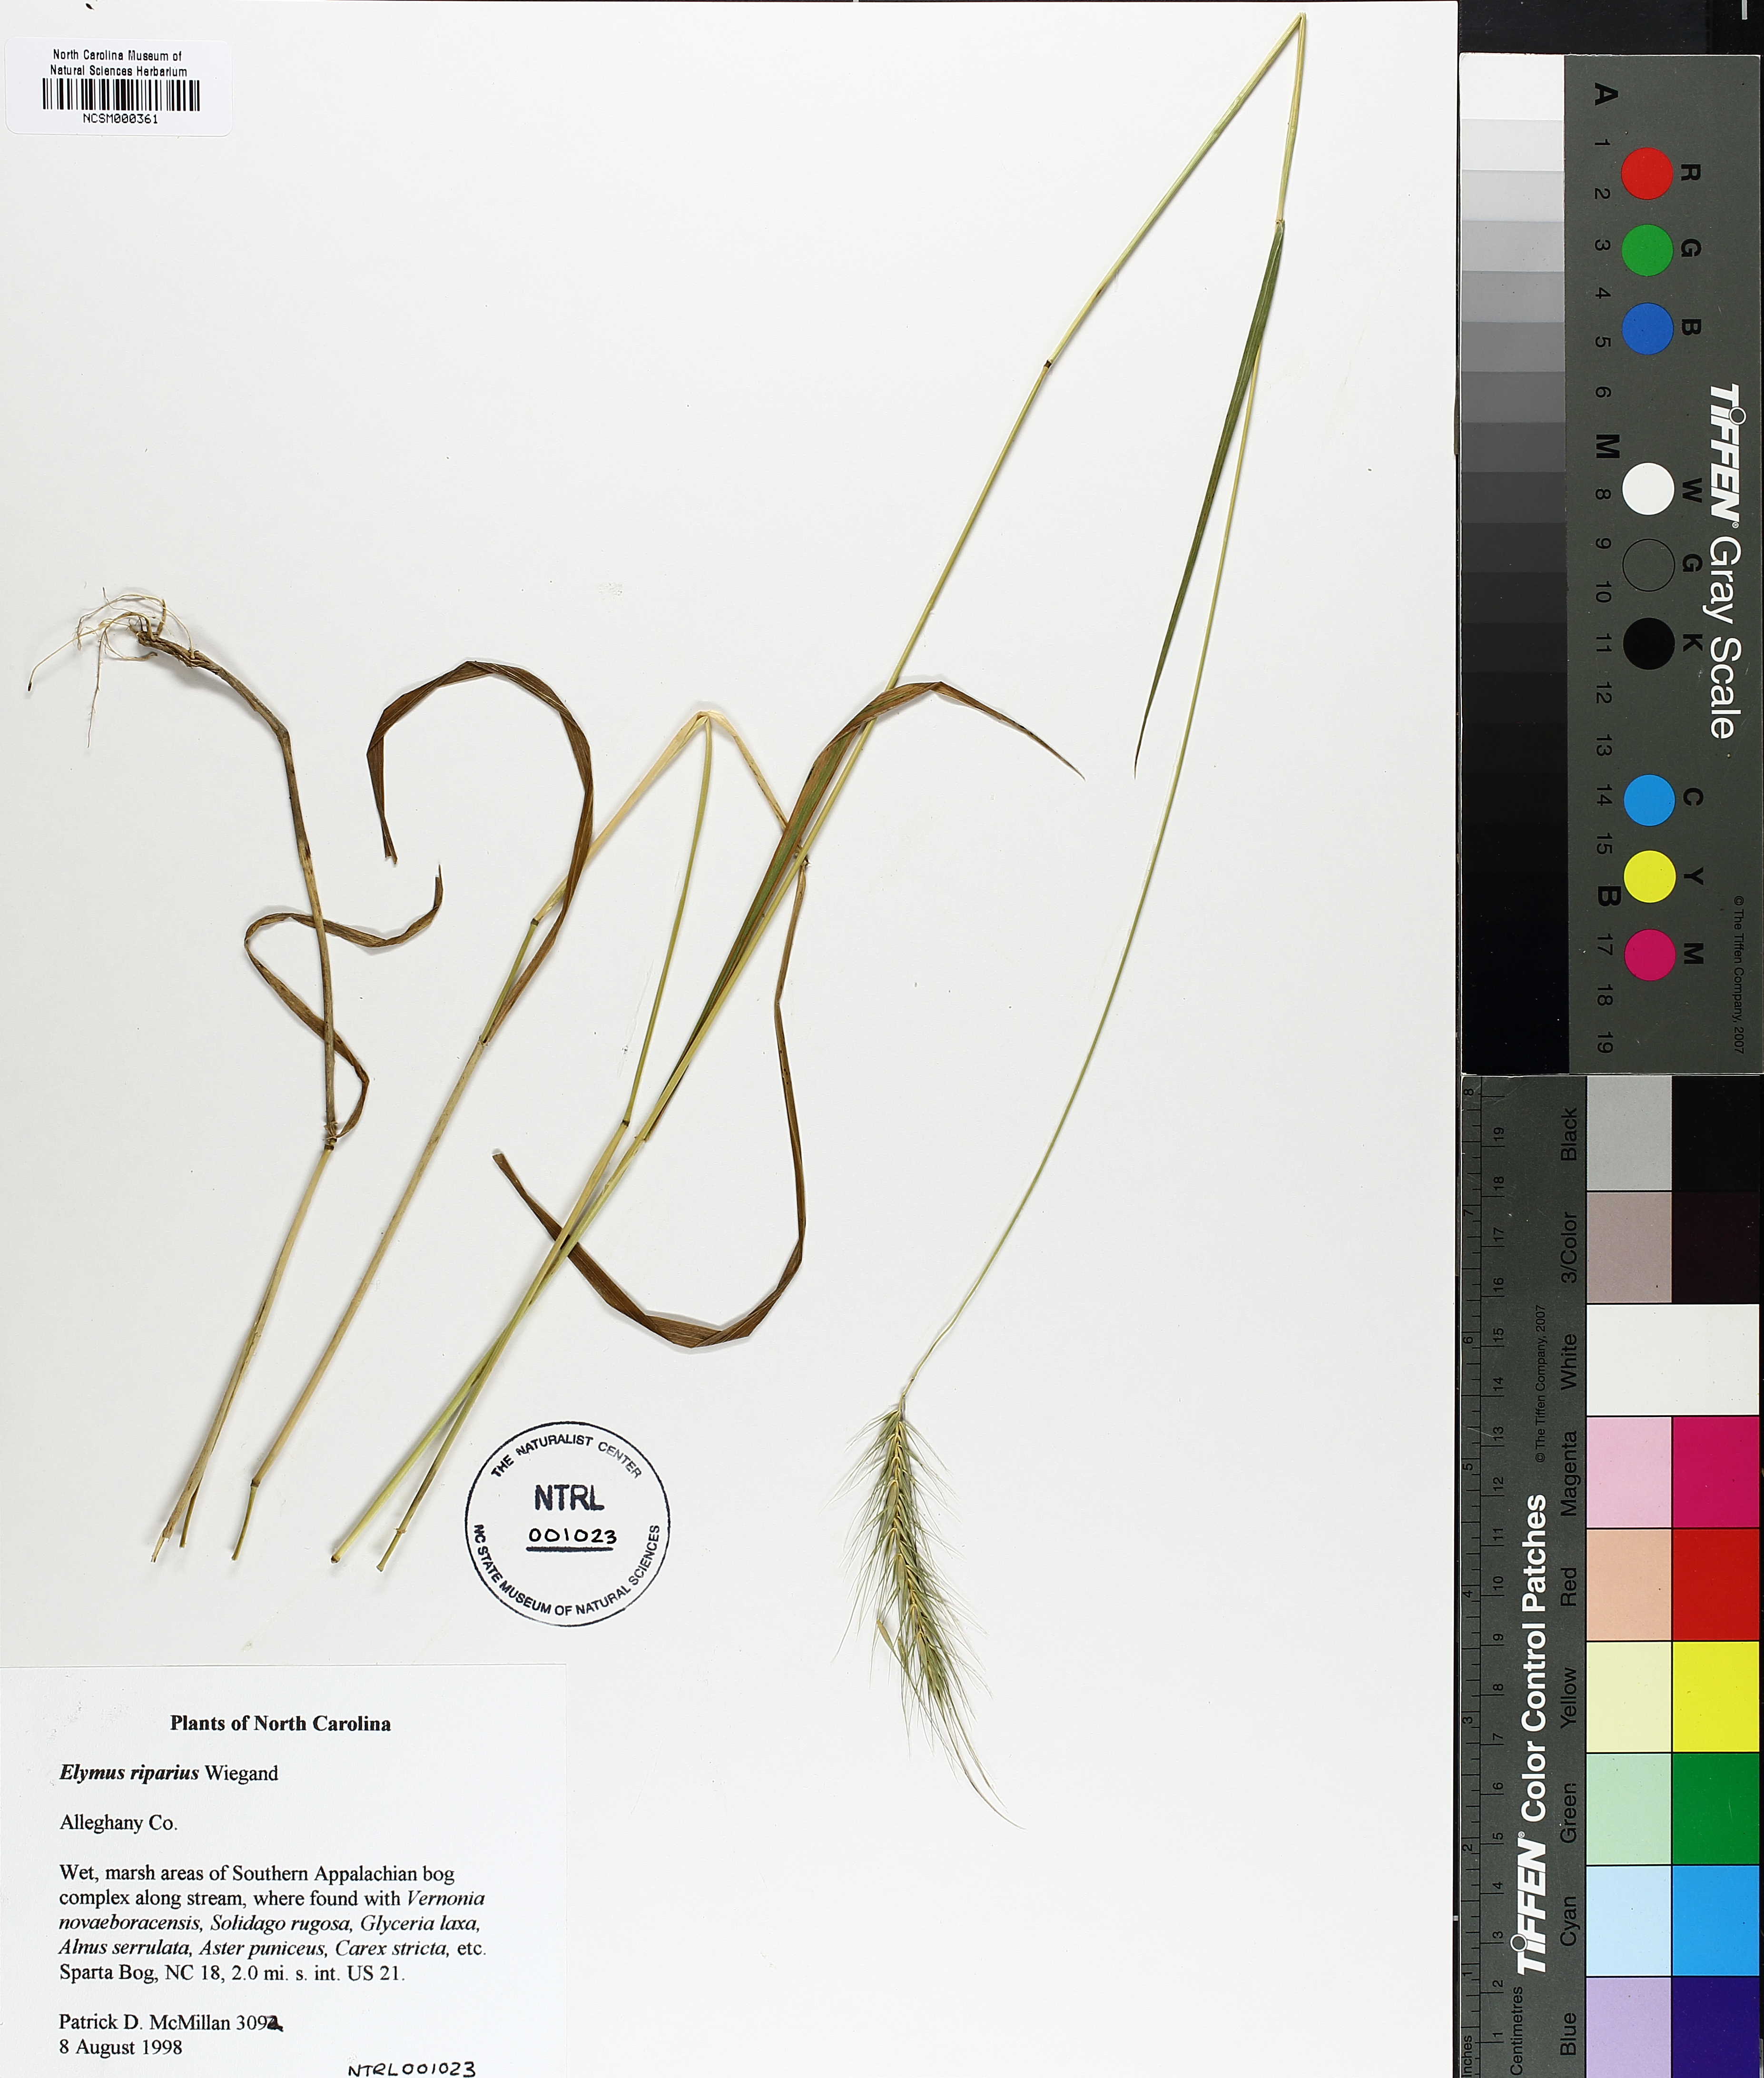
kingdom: Plantae
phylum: Tracheophyta
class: Liliopsida
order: Poales
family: Poaceae
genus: Elymus
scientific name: Elymus riparius
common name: Eastern riverbank wild rye
